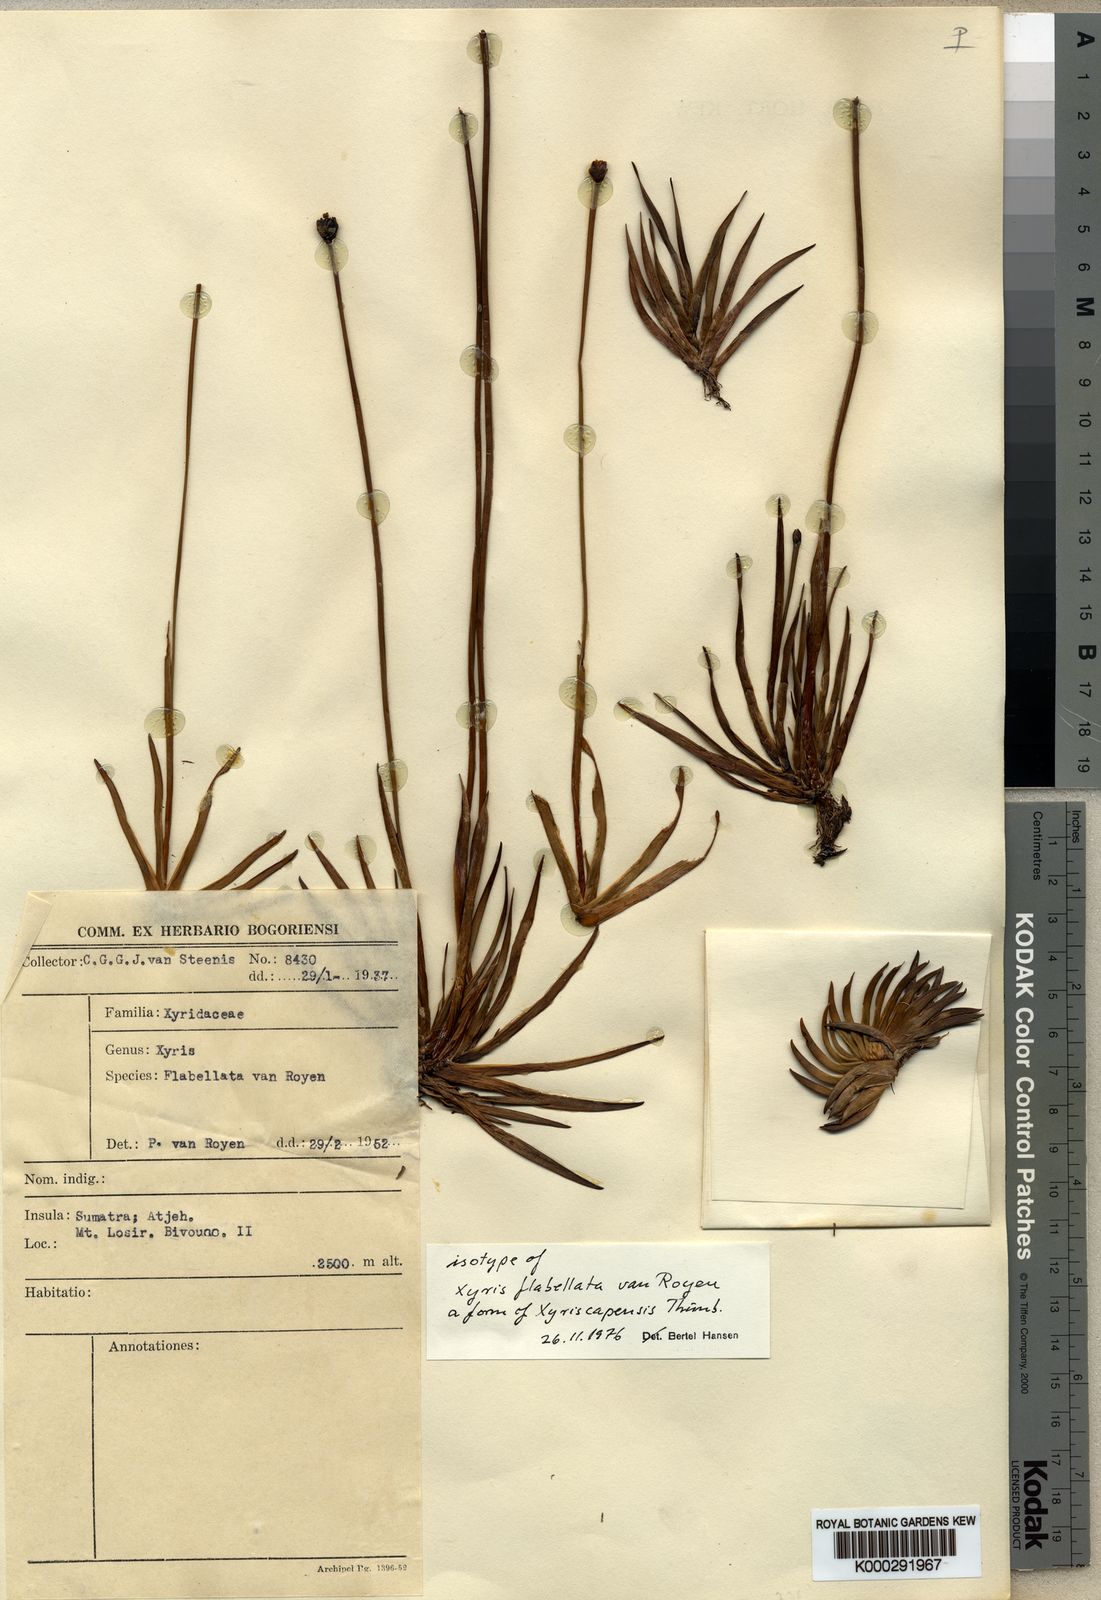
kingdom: Plantae
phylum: Tracheophyta
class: Liliopsida
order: Poales
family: Xyridaceae
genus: Xyris
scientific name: Xyris capensis
